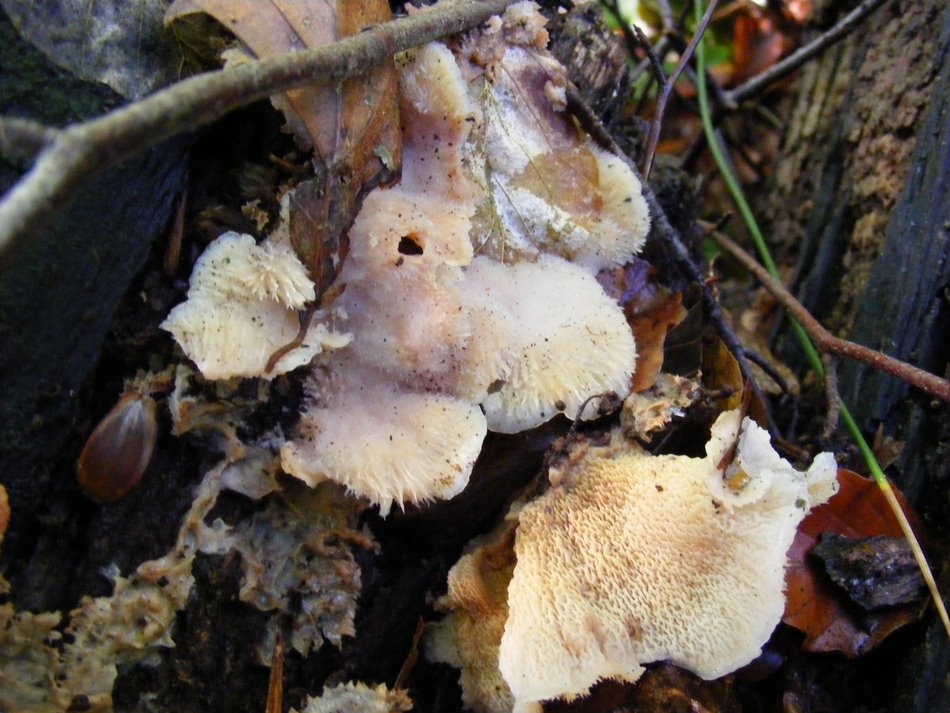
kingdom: Fungi
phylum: Basidiomycota
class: Agaricomycetes
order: Polyporales
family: Meruliaceae
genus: Phlebia
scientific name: Phlebia tremellosa
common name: bævrende åresvamp
